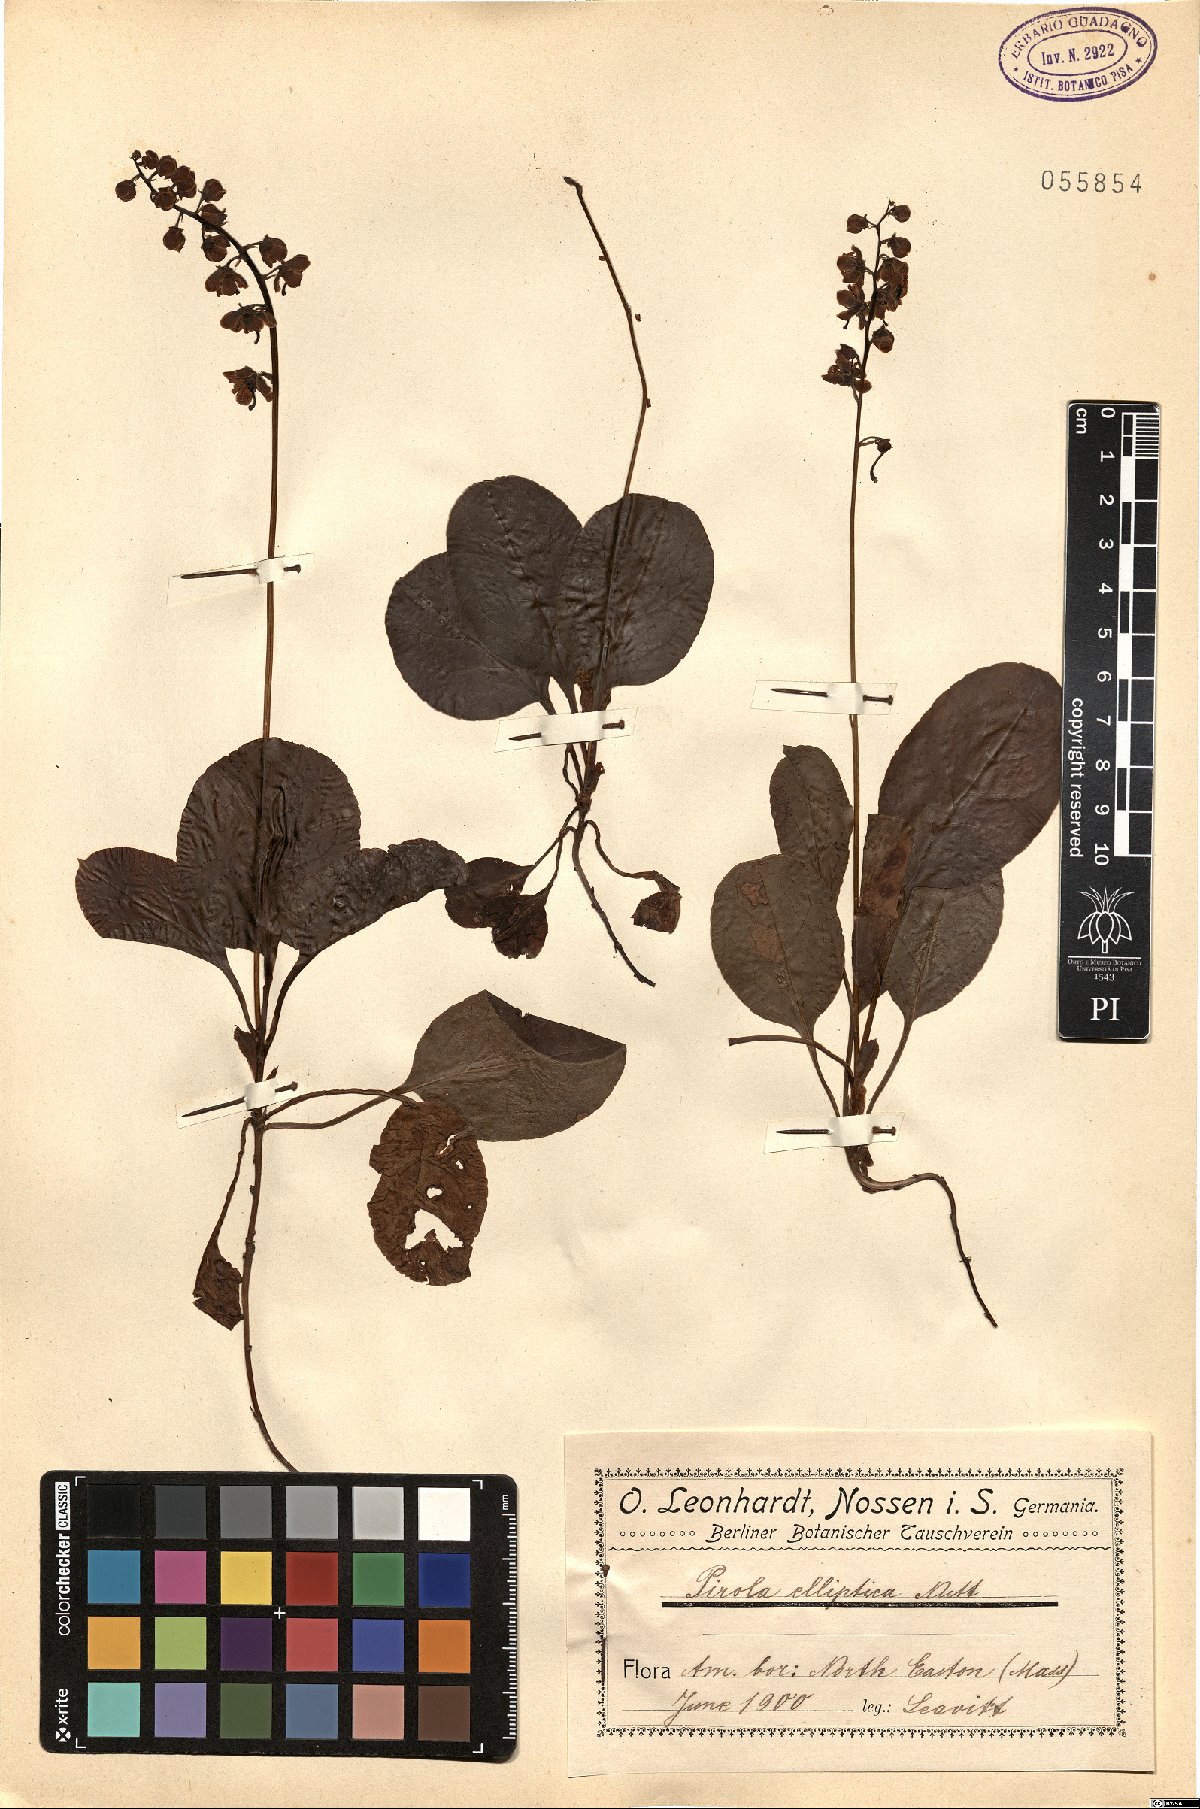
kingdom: Plantae
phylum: Tracheophyta
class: Magnoliopsida
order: Ericales
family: Ericaceae
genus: Pyrola
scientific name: Pyrola elliptica
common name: Shinleaf
